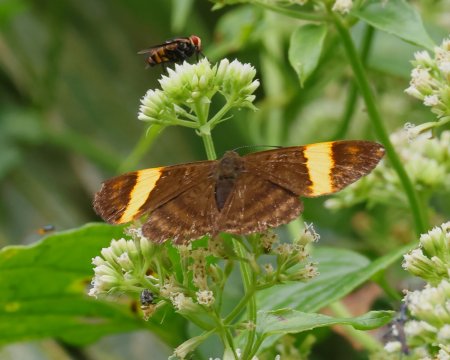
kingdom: Animalia
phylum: Arthropoda
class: Insecta
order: Lepidoptera
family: Lycaenidae
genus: Emesis
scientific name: Emesis cypria
